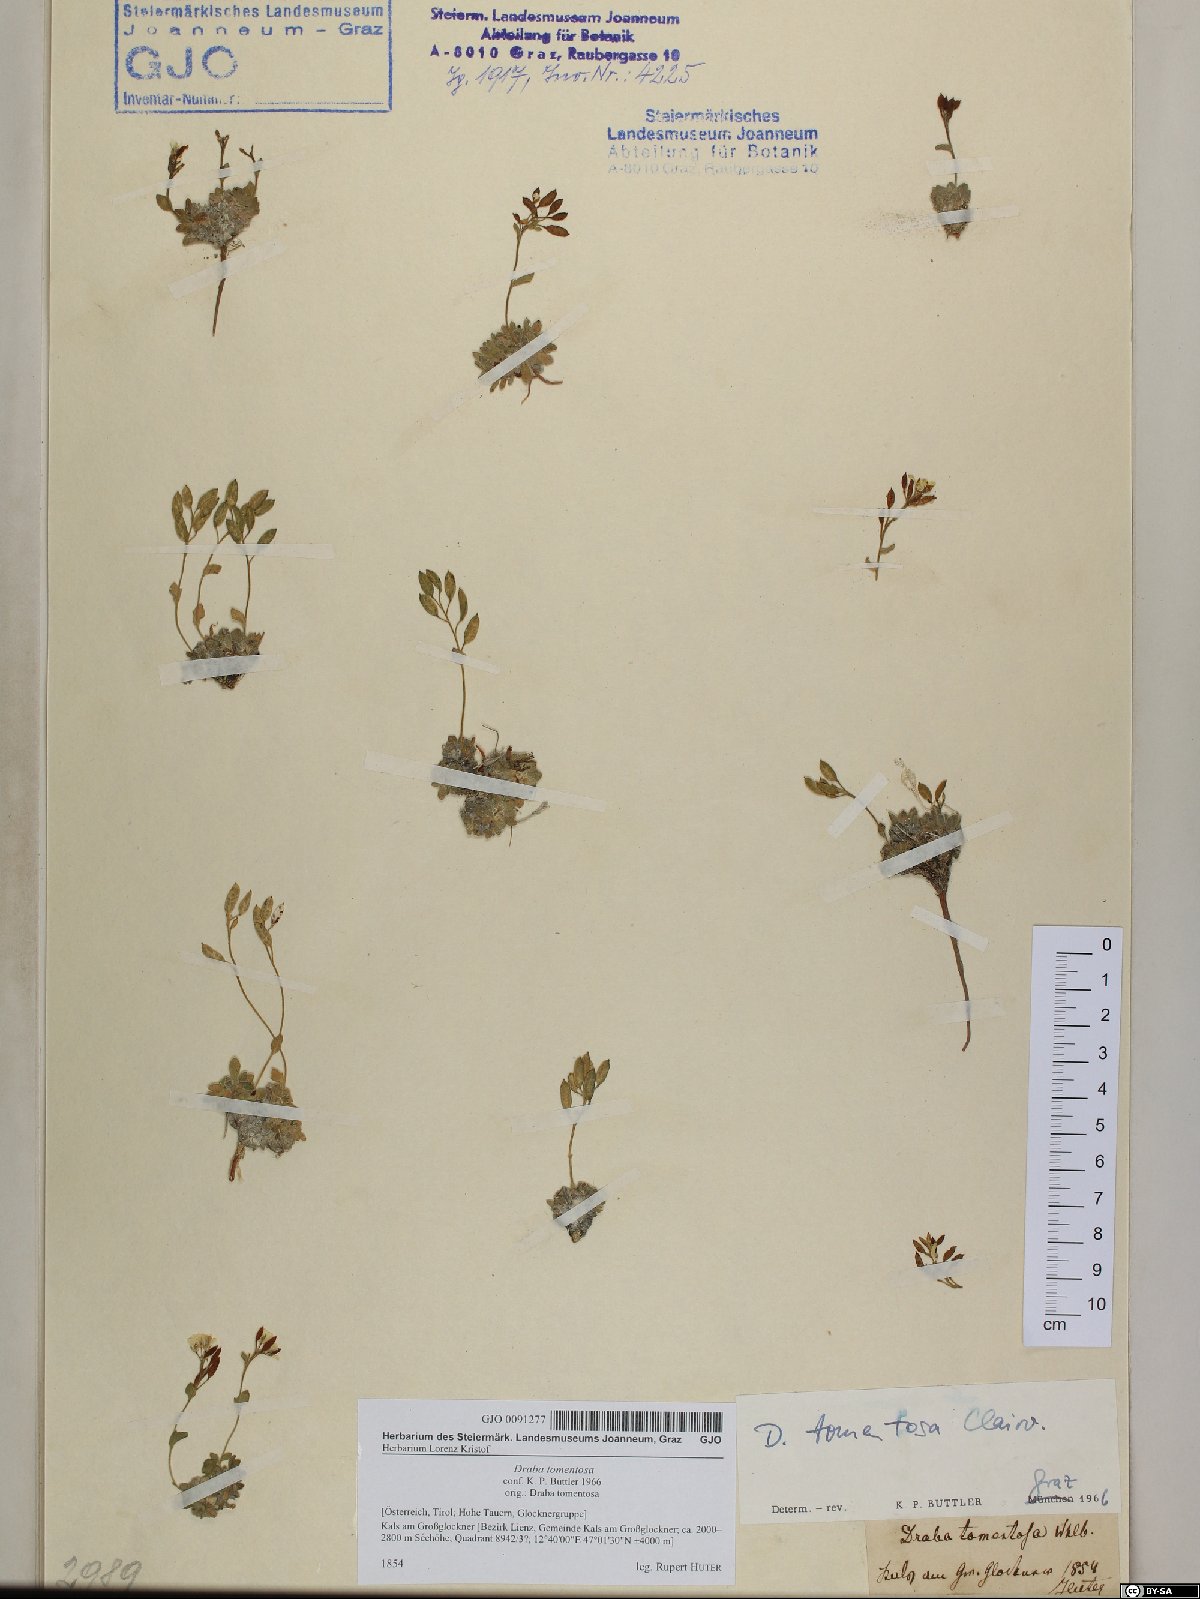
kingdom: Plantae
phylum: Tracheophyta
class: Magnoliopsida
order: Brassicales
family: Brassicaceae
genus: Draba
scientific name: Draba tomentosa
